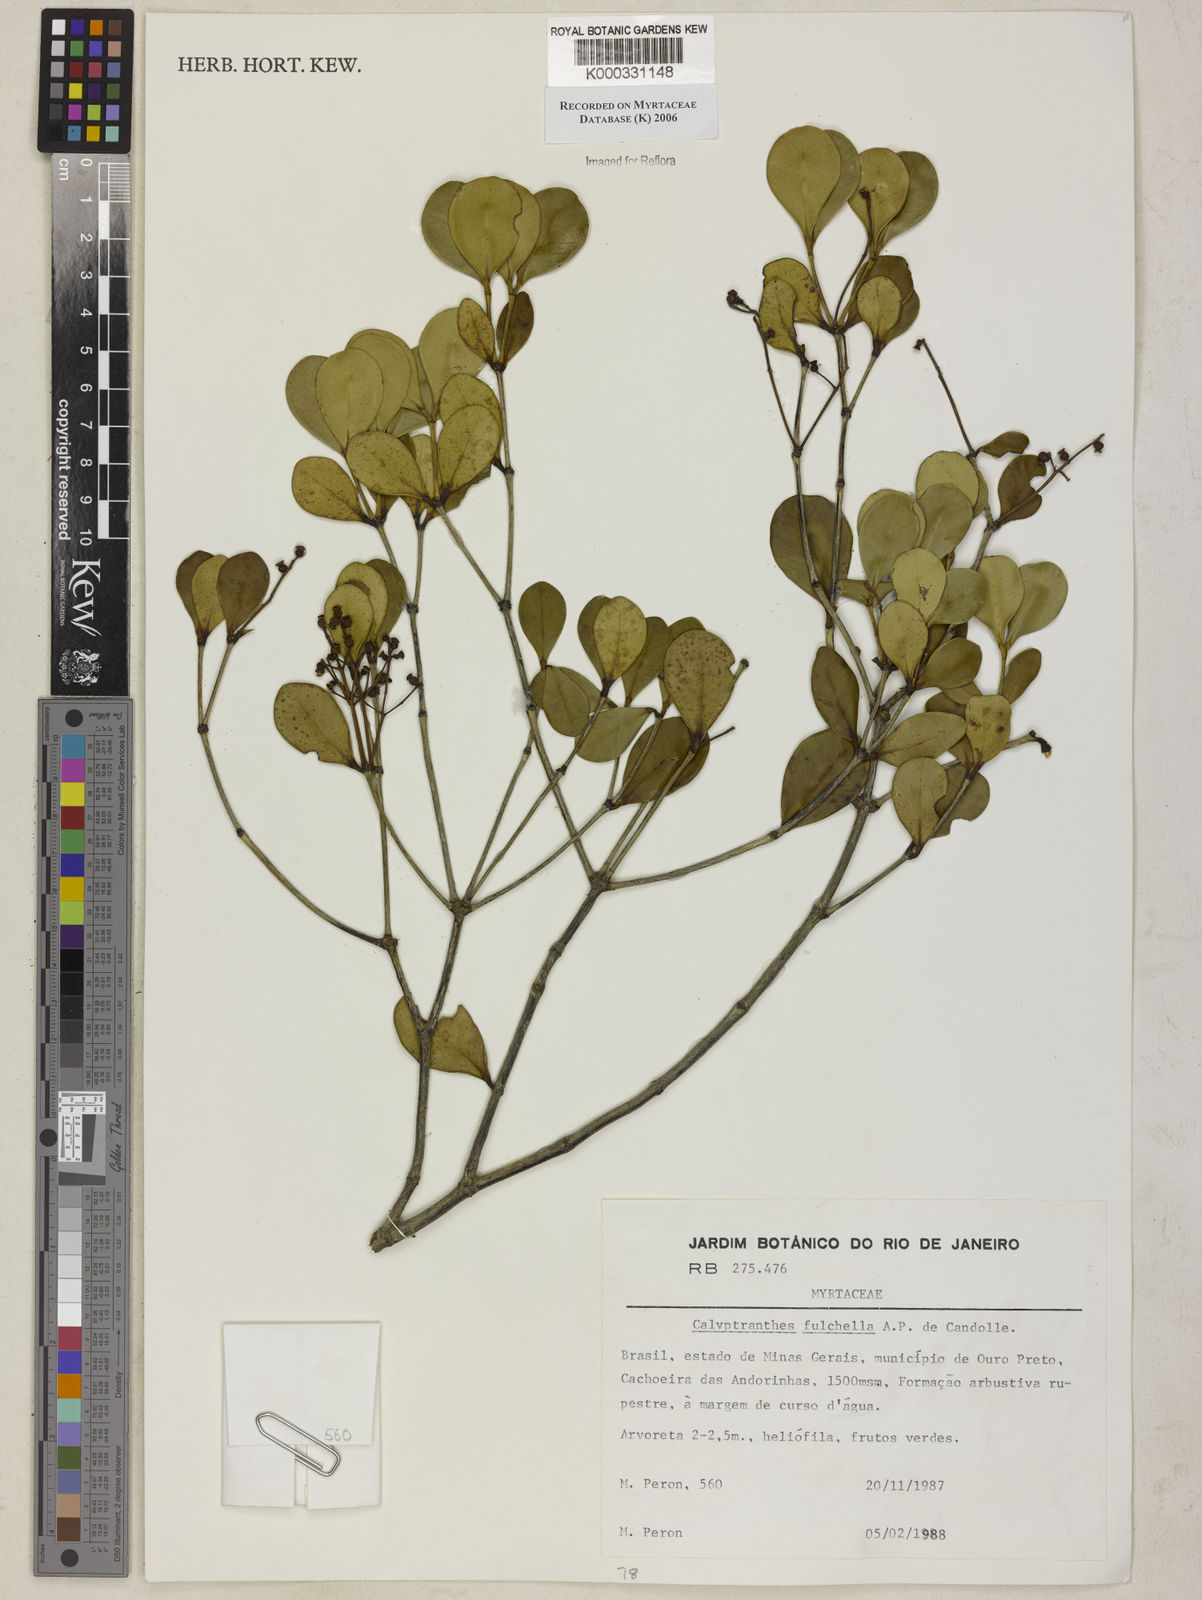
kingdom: Plantae
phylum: Tracheophyta
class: Magnoliopsida
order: Myrtales
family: Myrtaceae
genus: Myrcia
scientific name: Myrcia pulchella
